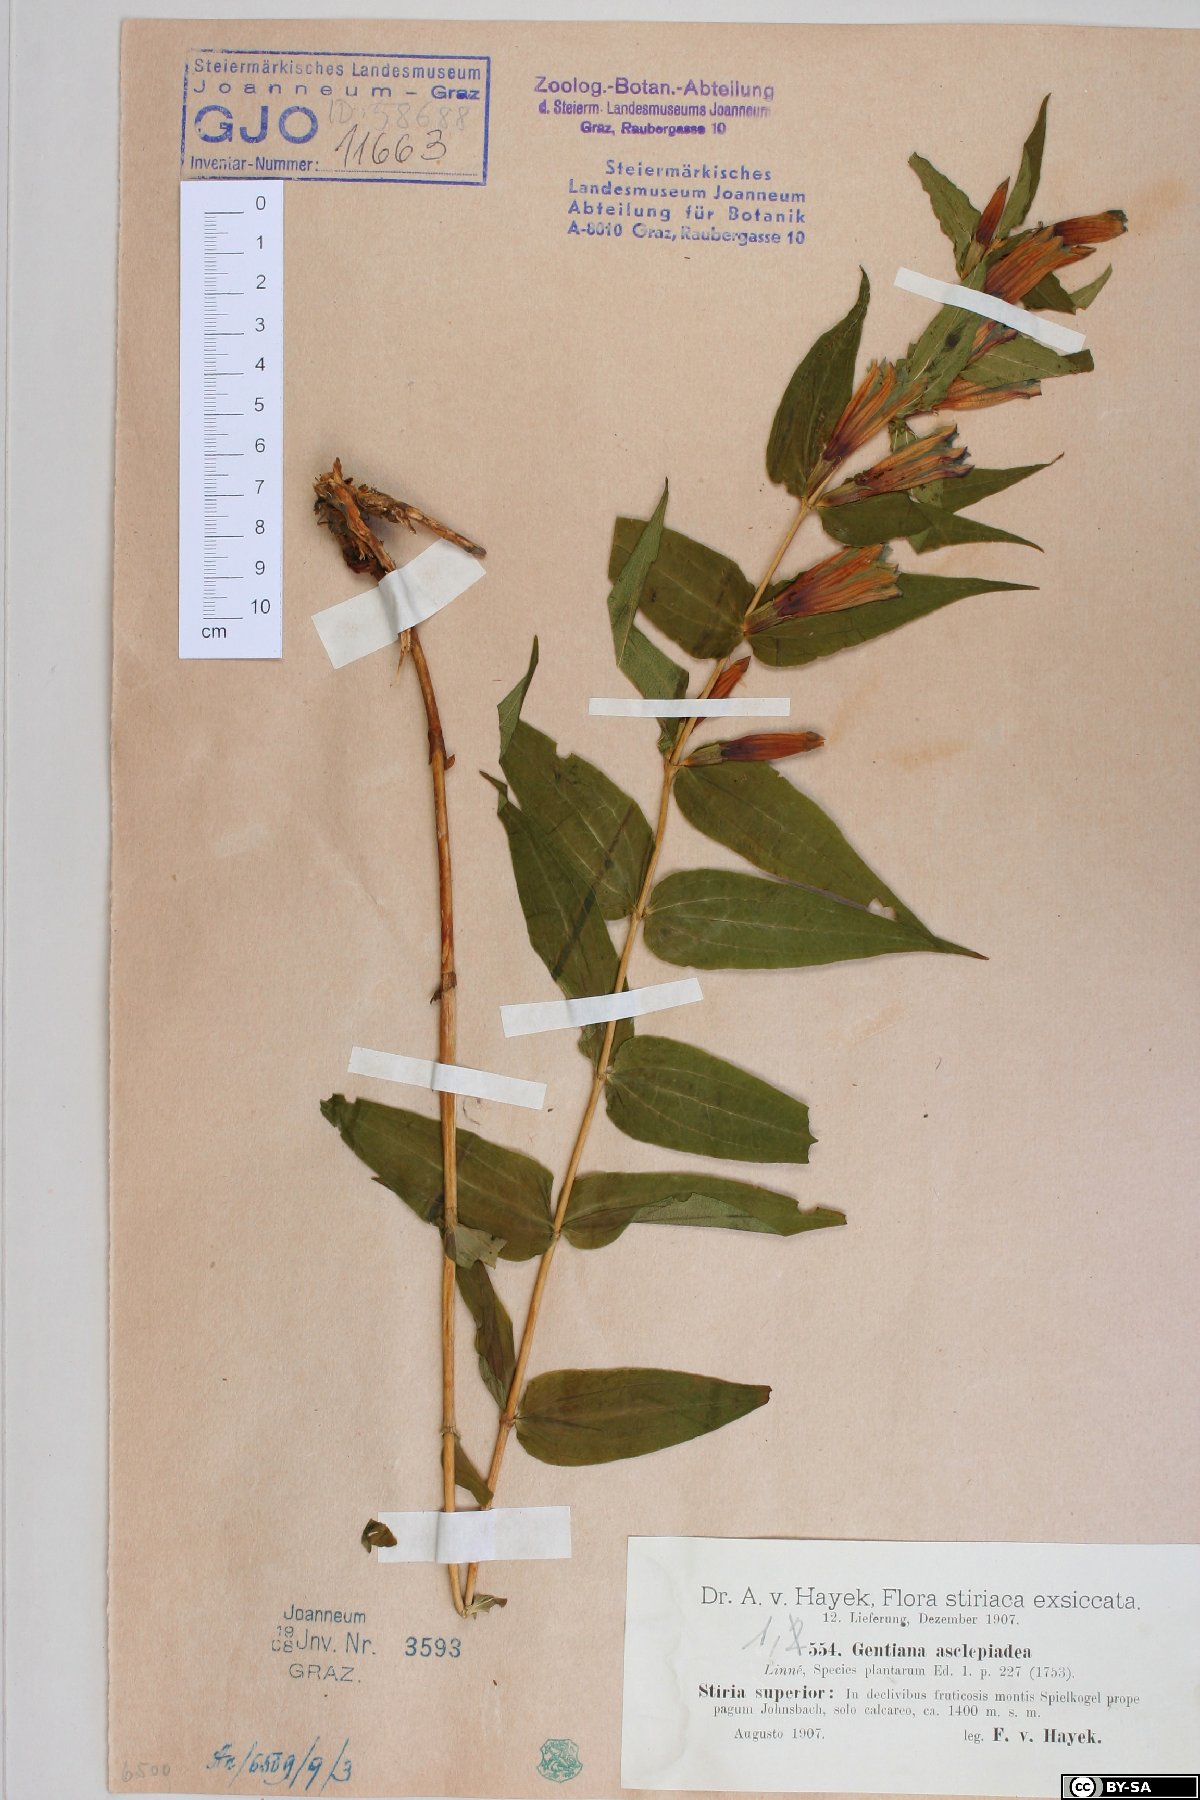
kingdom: Plantae
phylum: Tracheophyta
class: Magnoliopsida
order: Gentianales
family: Gentianaceae
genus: Gentiana
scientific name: Gentiana asclepiadea
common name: Willow gentian
